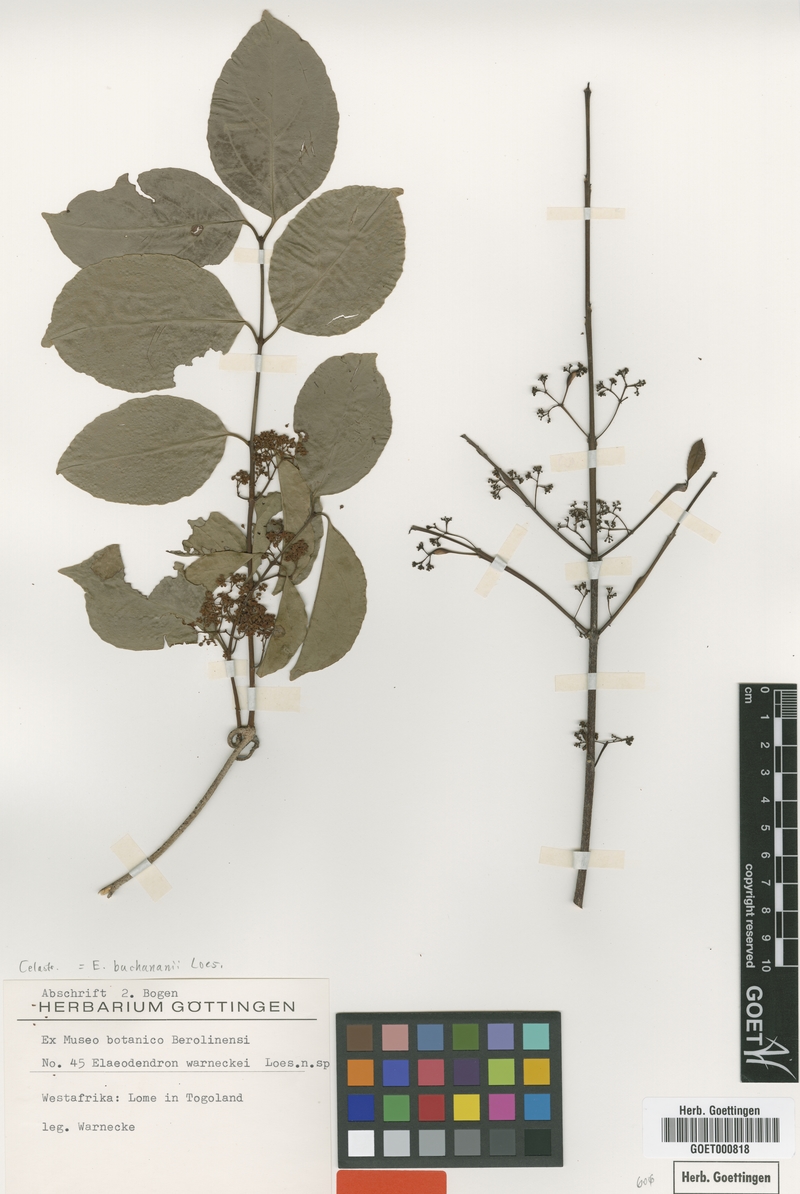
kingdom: Plantae
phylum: Tracheophyta
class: Magnoliopsida
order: Celastrales
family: Celastraceae
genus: Elaeodendron
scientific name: Elaeodendron buchananii
